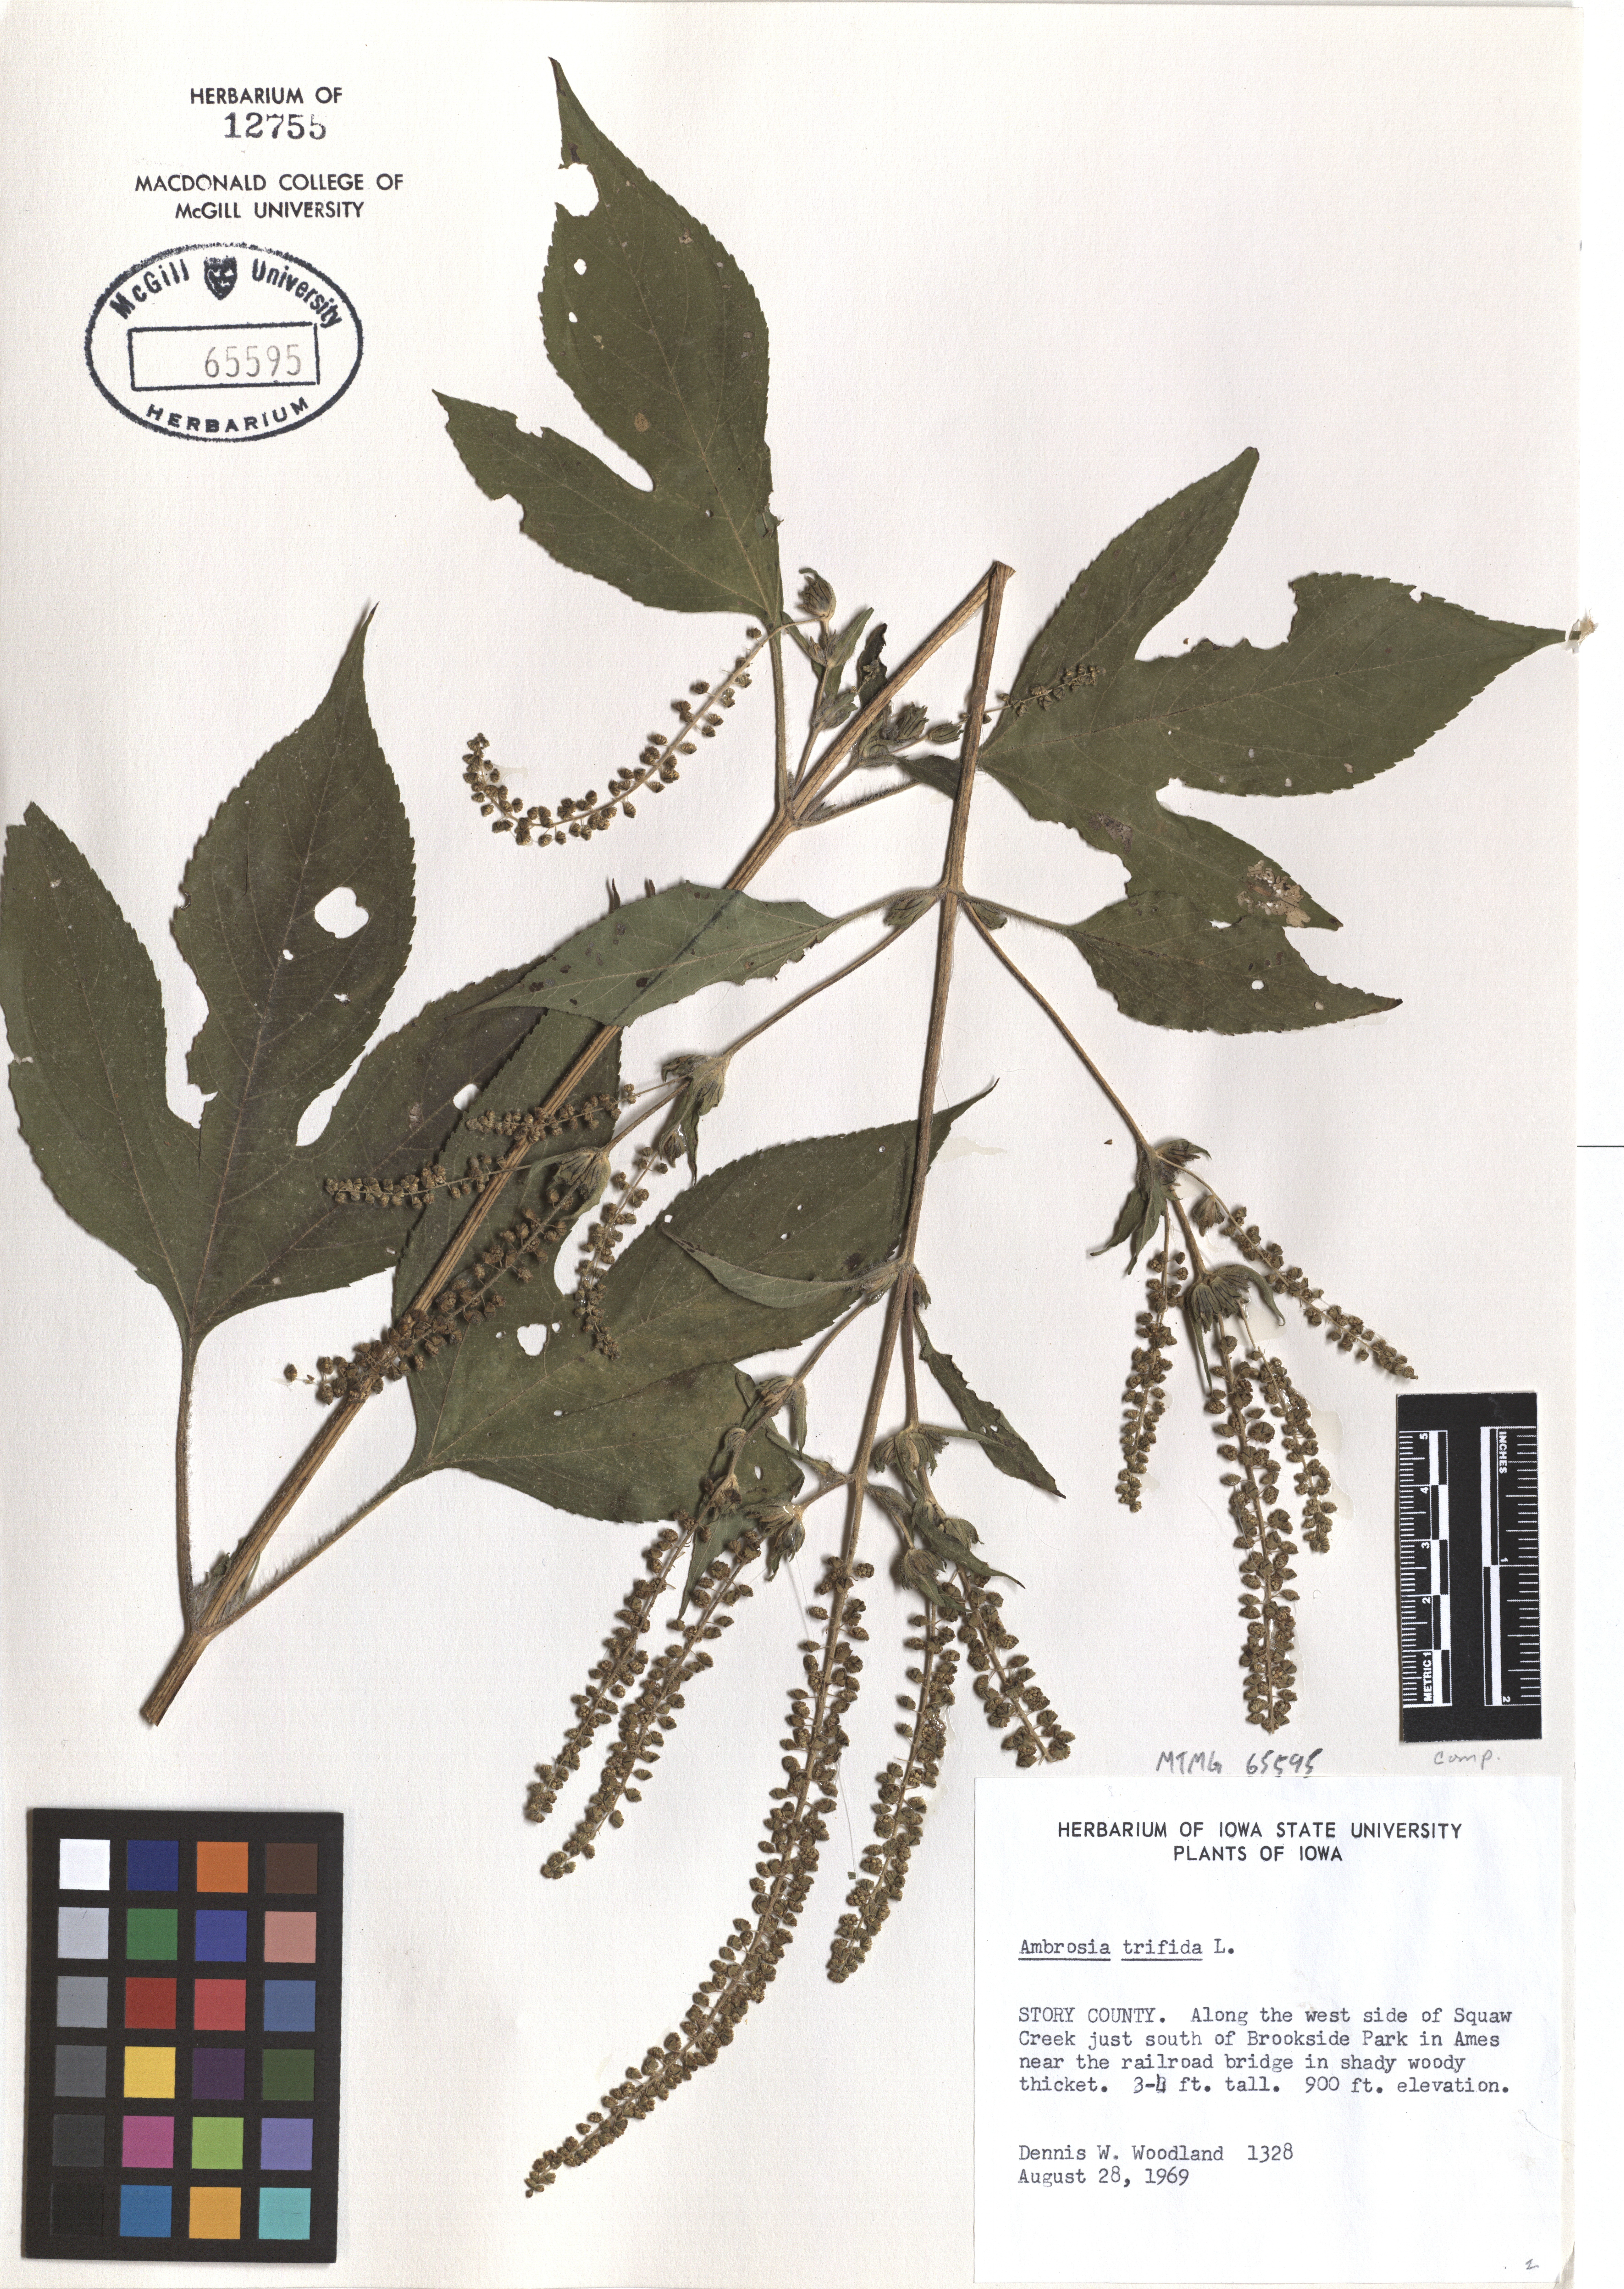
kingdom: Plantae
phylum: Tracheophyta
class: Magnoliopsida
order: Asterales
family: Asteraceae
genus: Ambrosia
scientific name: Ambrosia trifida
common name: Giant ragweed
